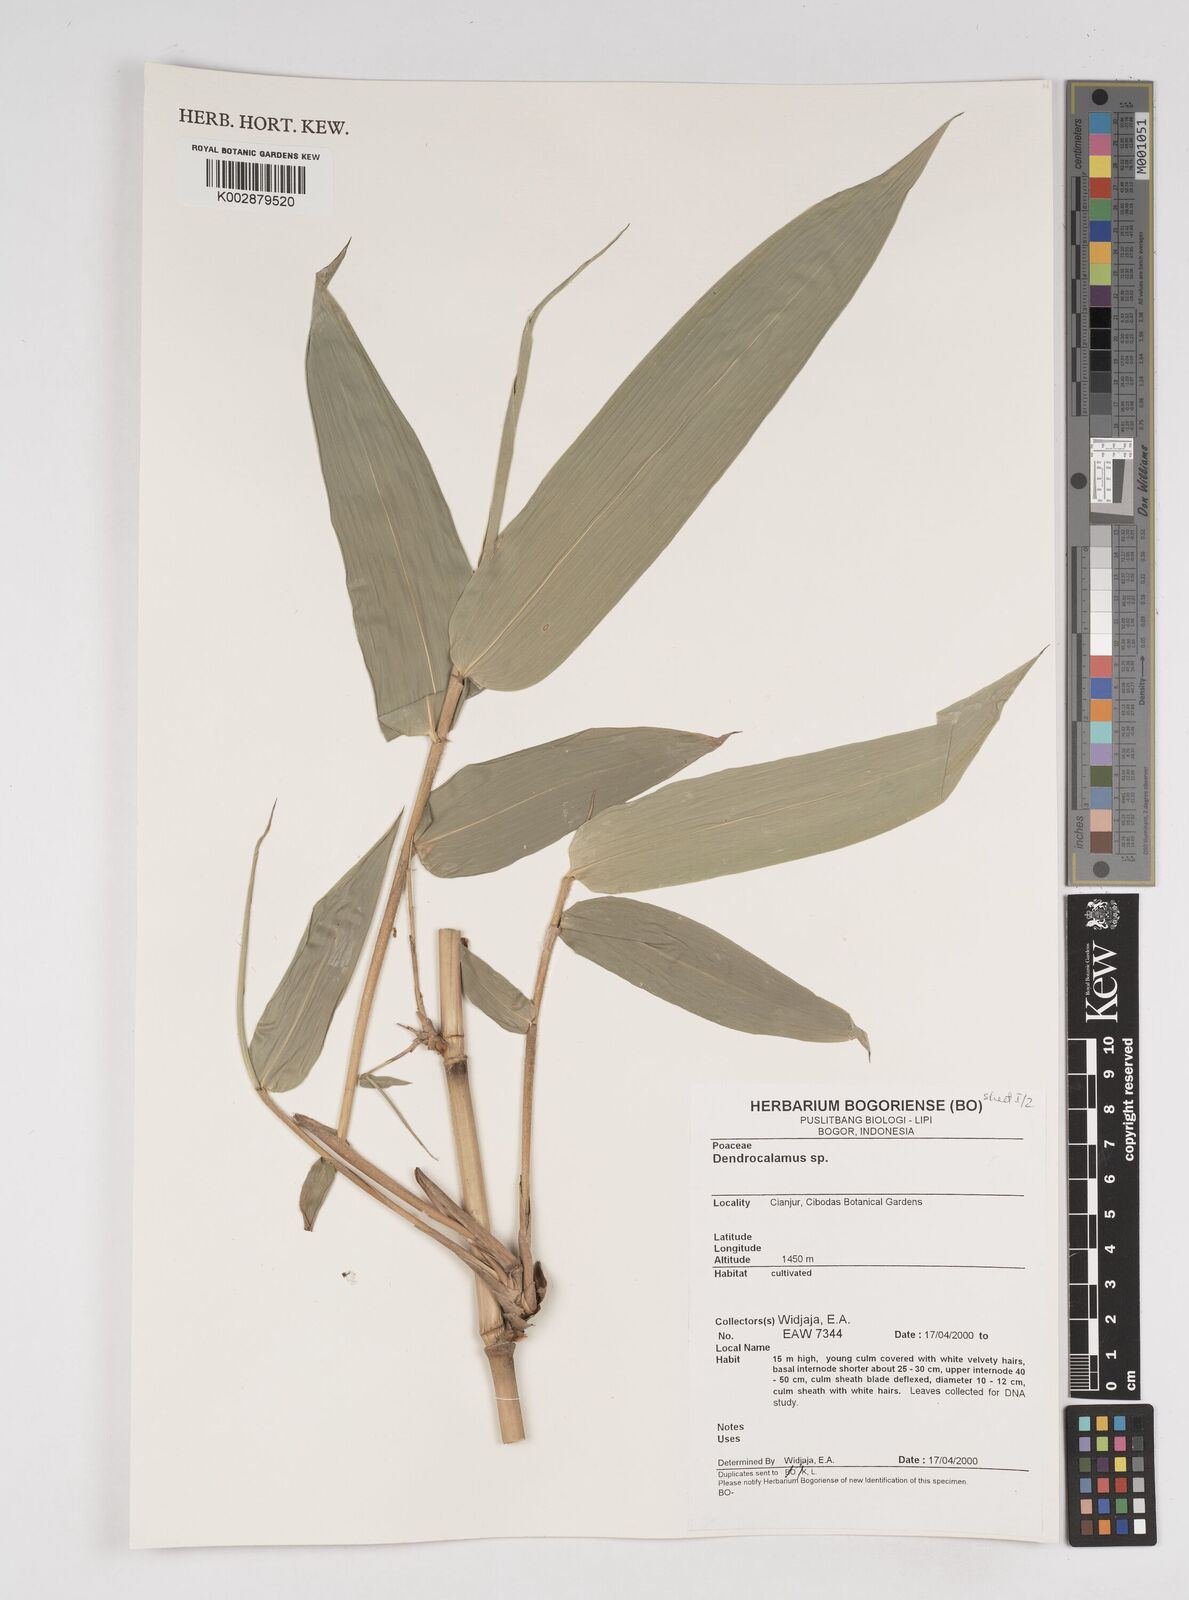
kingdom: Plantae
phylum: Tracheophyta
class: Liliopsida
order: Poales
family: Poaceae
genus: Dendrocalamus
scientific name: Dendrocalamus
